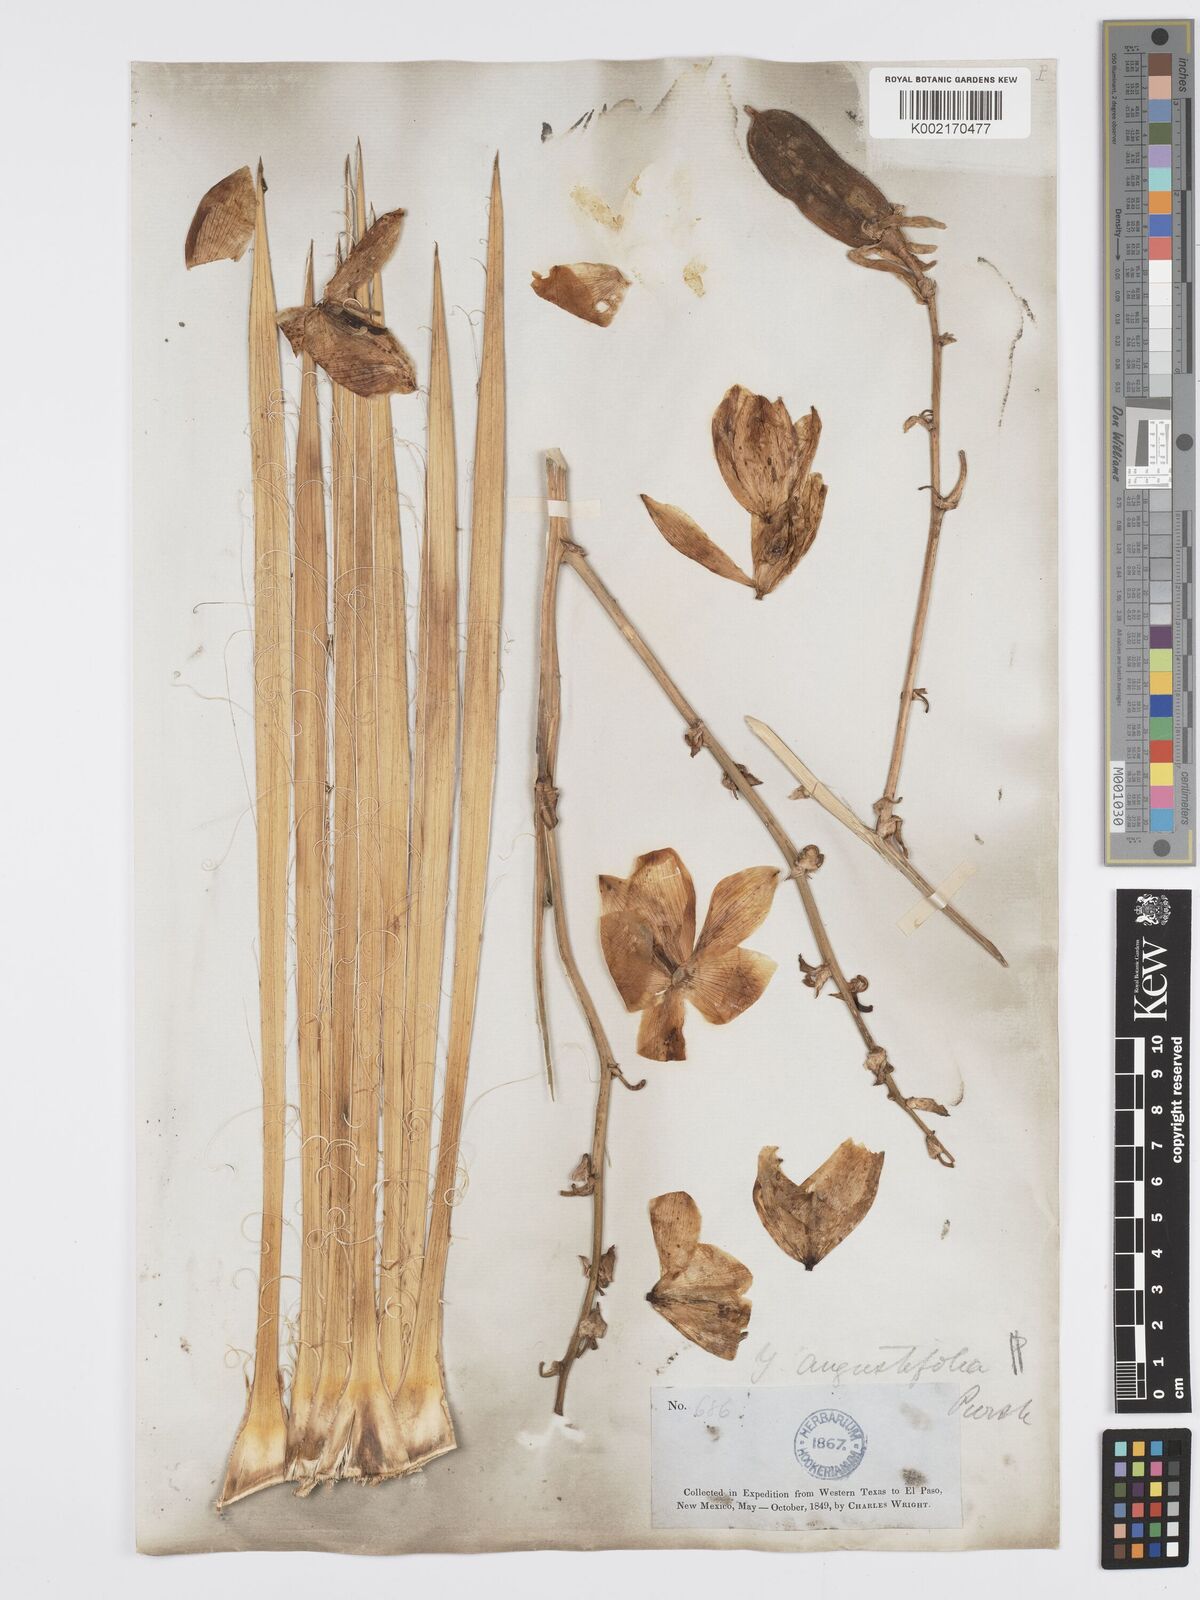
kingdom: Plantae
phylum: Tracheophyta
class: Liliopsida
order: Asparagales
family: Asparagaceae
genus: Yucca
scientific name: Yucca glauca
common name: Great plains yucca
